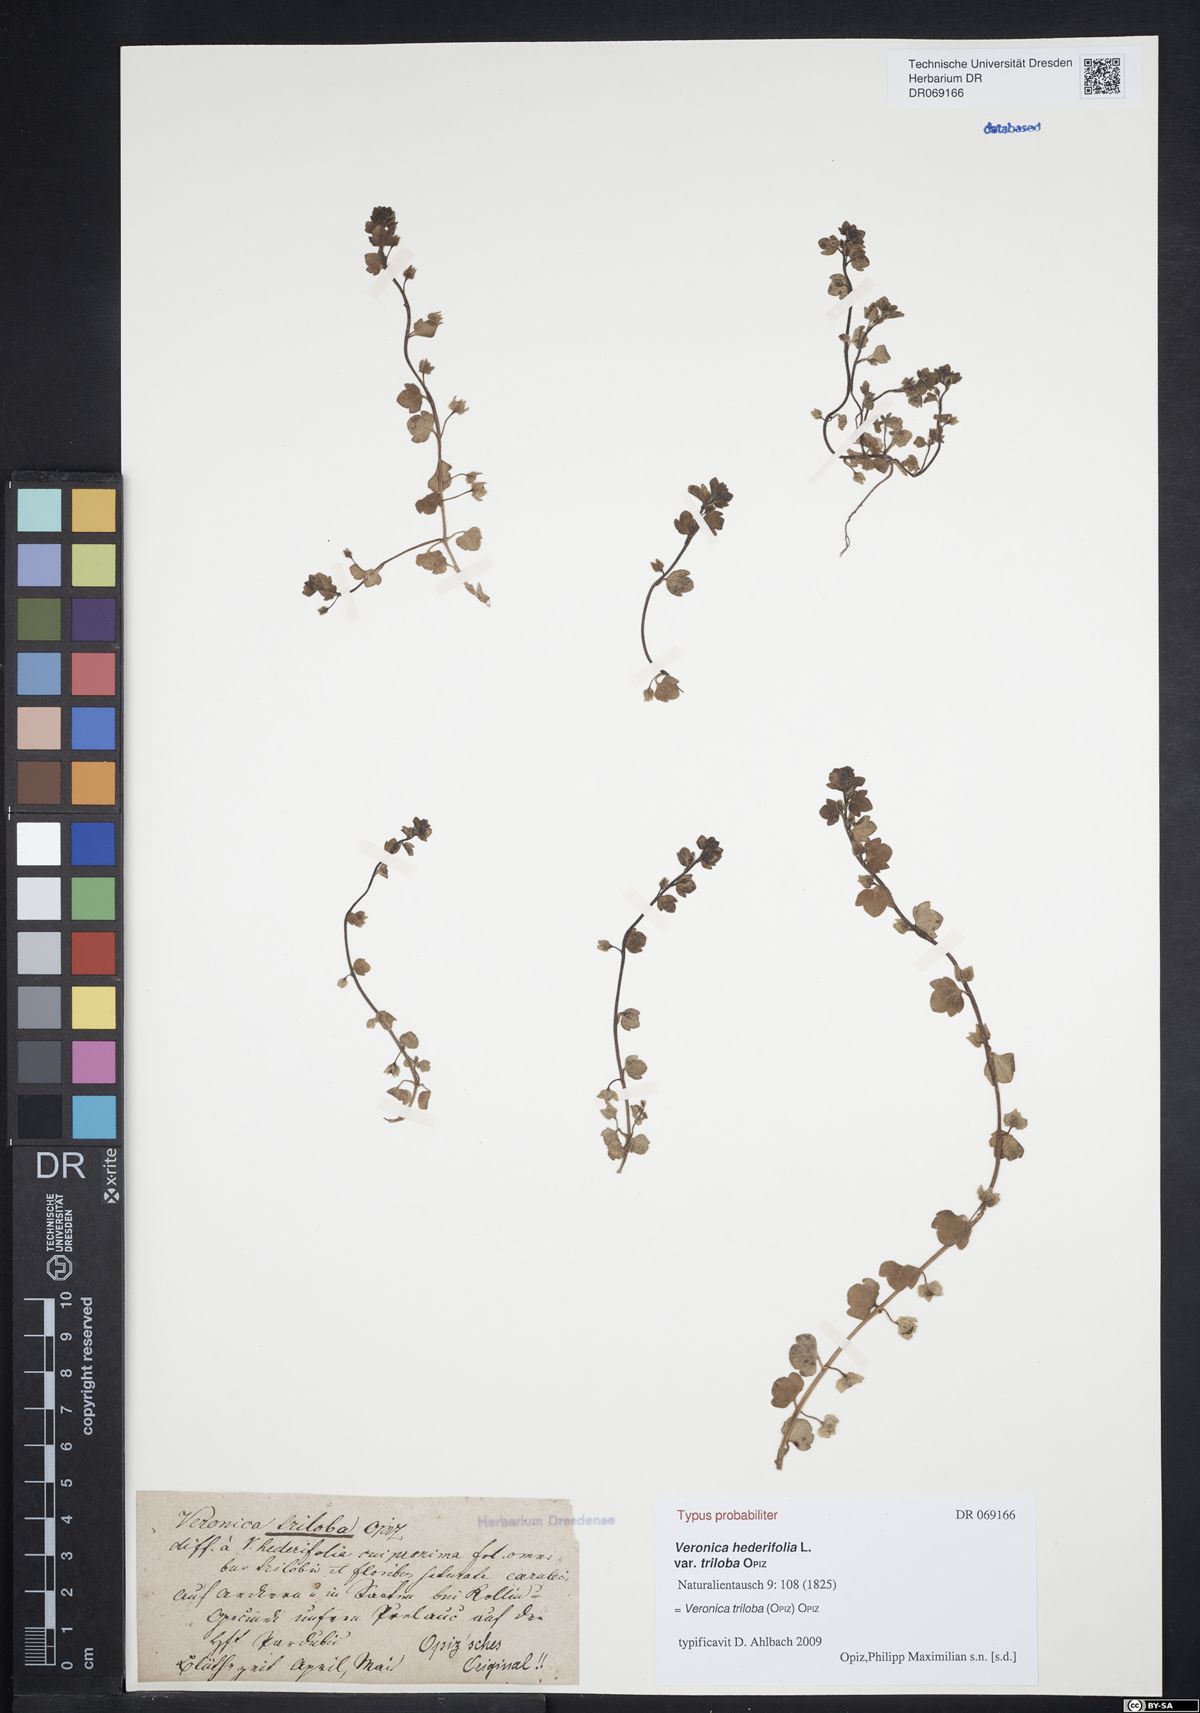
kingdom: Plantae
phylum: Tracheophyta
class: Magnoliopsida
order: Lamiales
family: Plantaginaceae
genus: Veronica
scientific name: Veronica triloba
